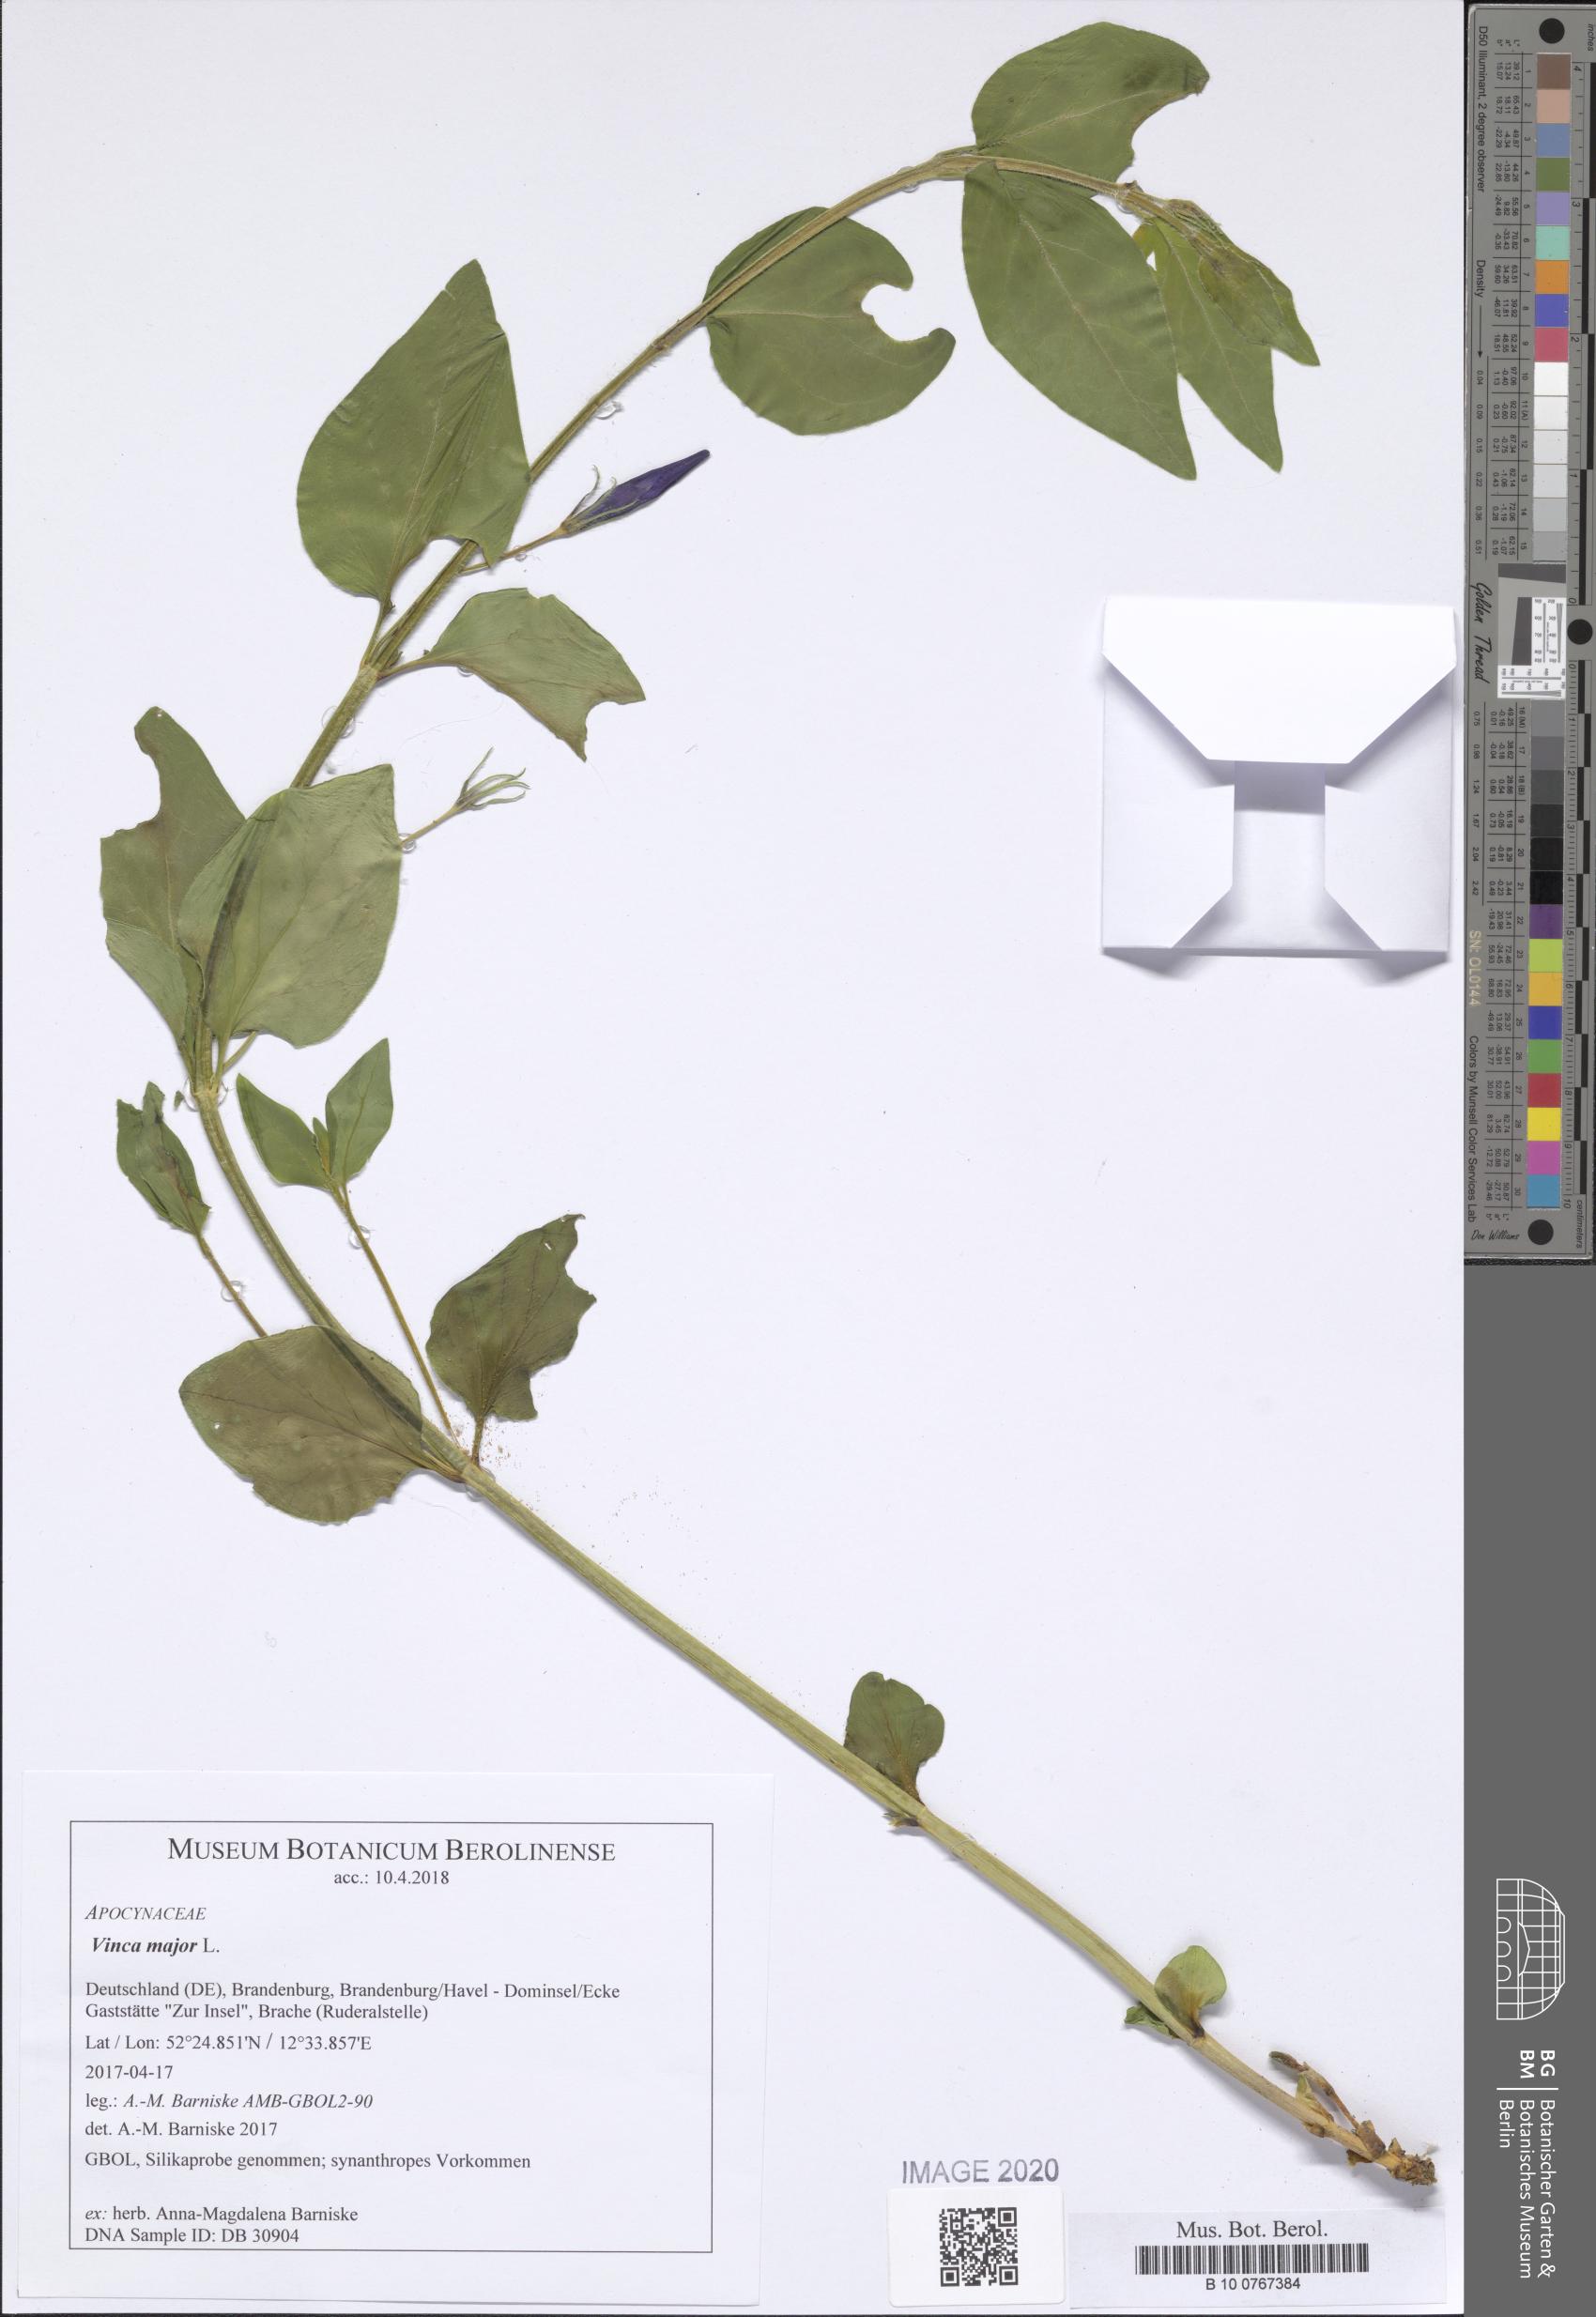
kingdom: Plantae
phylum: Tracheophyta
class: Magnoliopsida
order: Gentianales
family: Apocynaceae
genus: Vinca
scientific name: Vinca major
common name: Greater periwinkle
